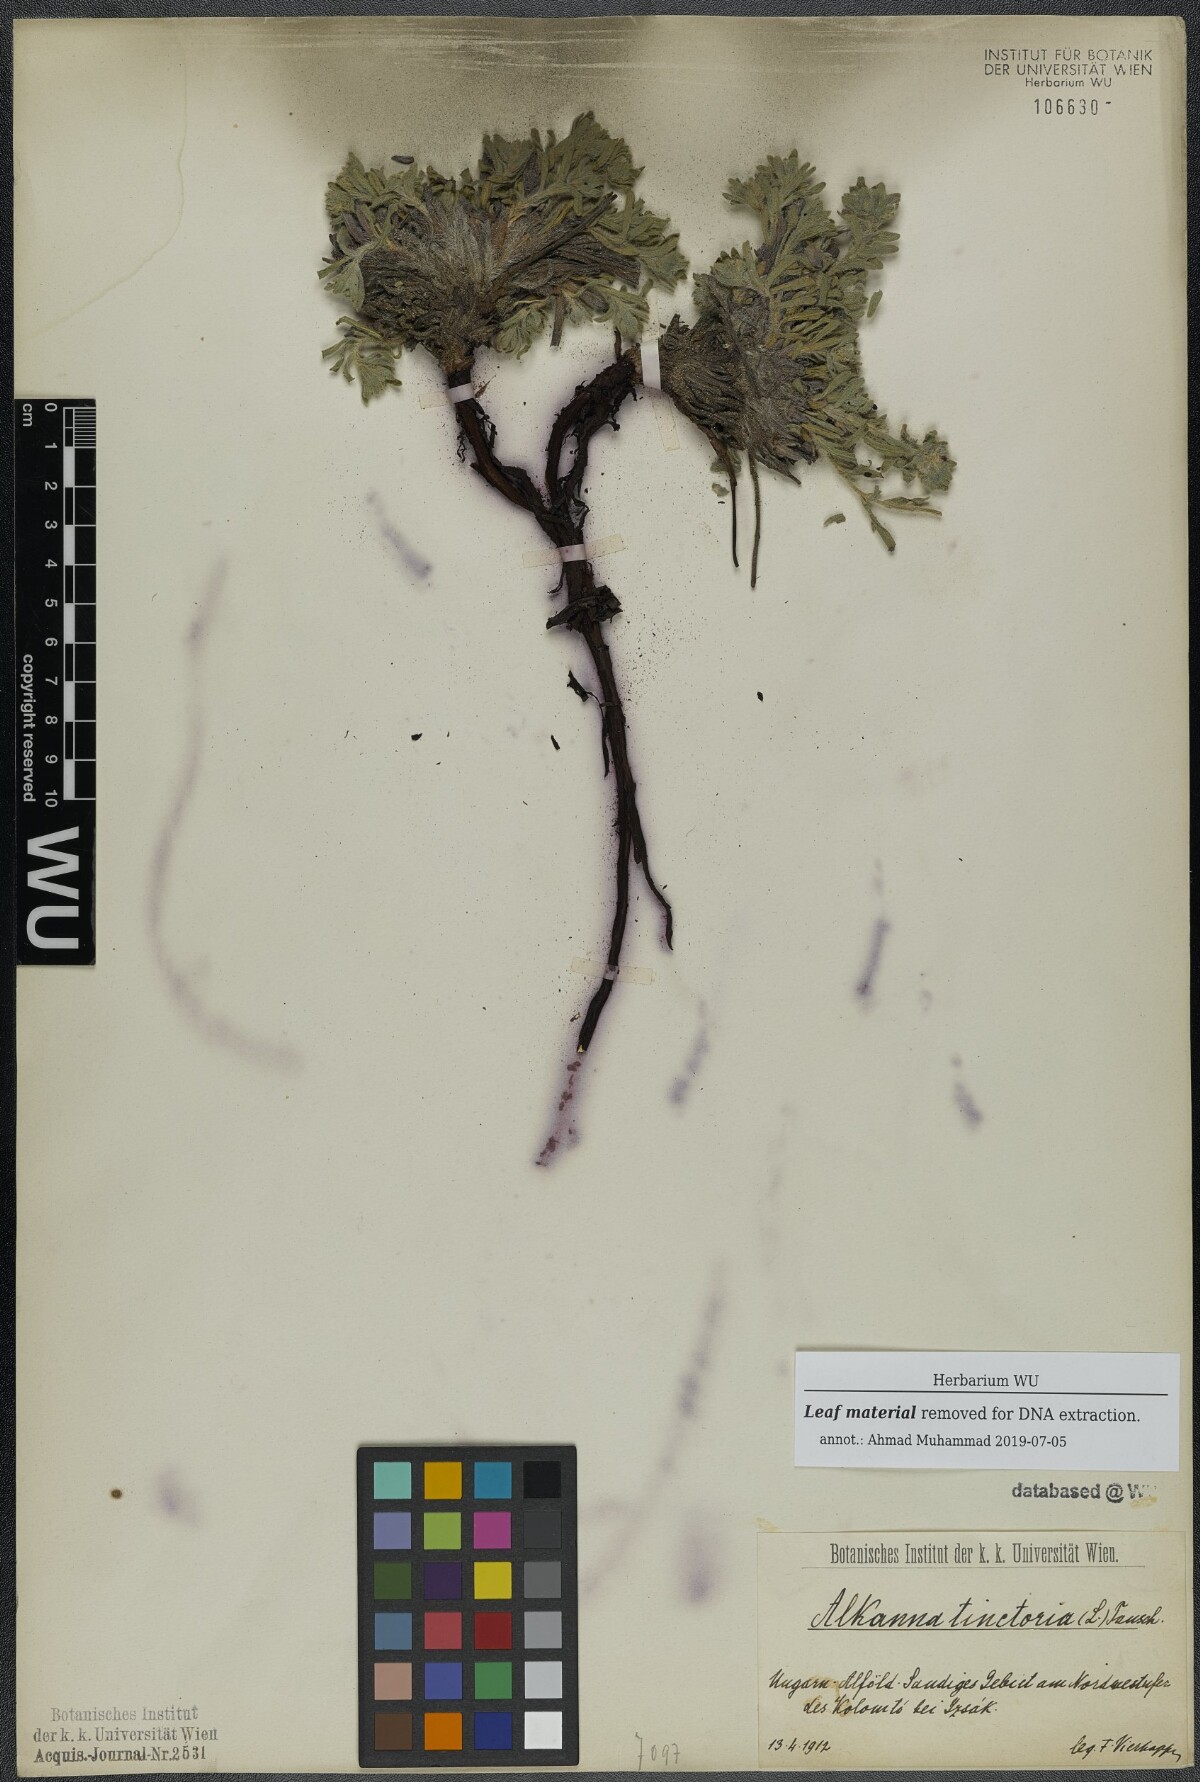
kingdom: Plantae
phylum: Tracheophyta
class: Magnoliopsida
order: Boraginales
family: Boraginaceae
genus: Alkanna
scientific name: Alkanna tinctoria
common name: Dyer's-alkanet
